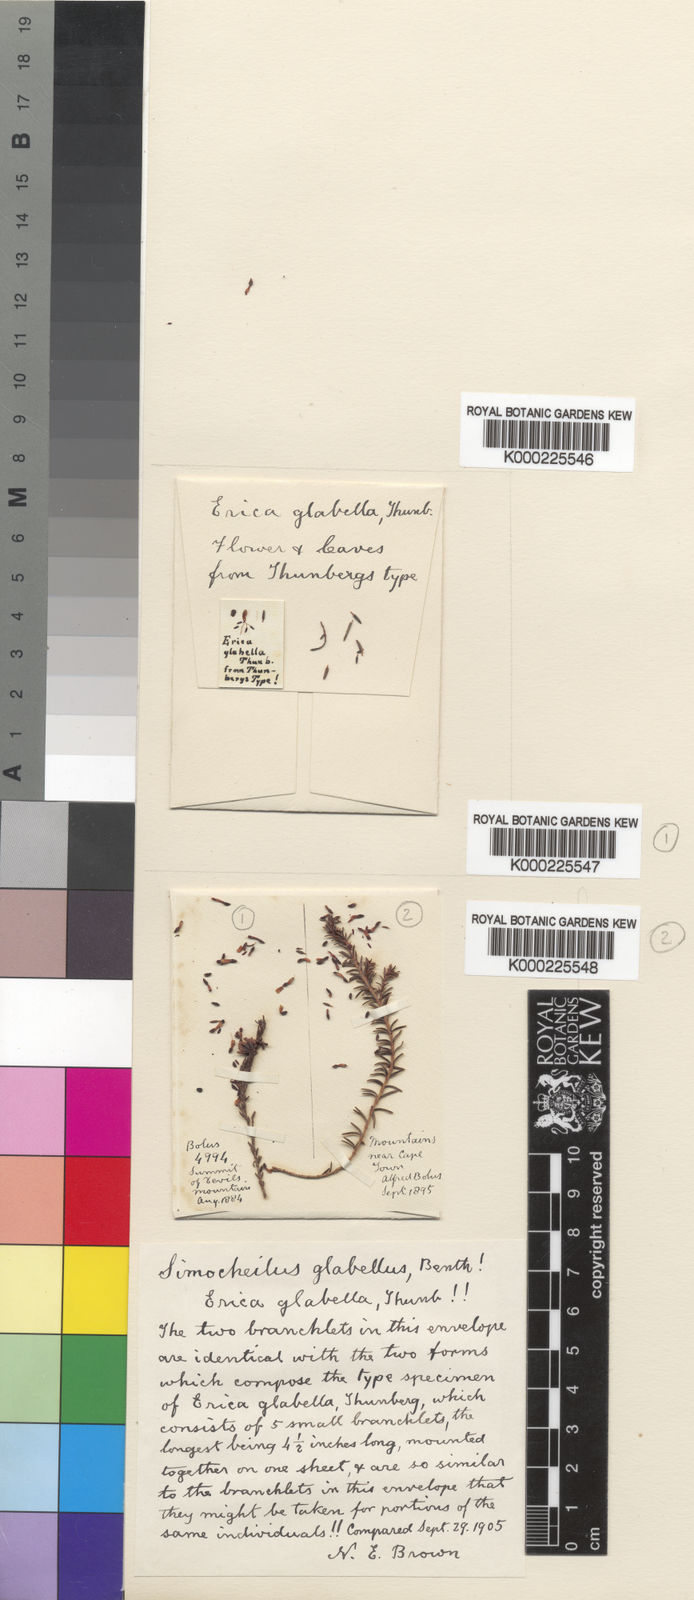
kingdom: Plantae
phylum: Tracheophyta
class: Magnoliopsida
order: Ericales
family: Ericaceae
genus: Erica
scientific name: Erica glabella
